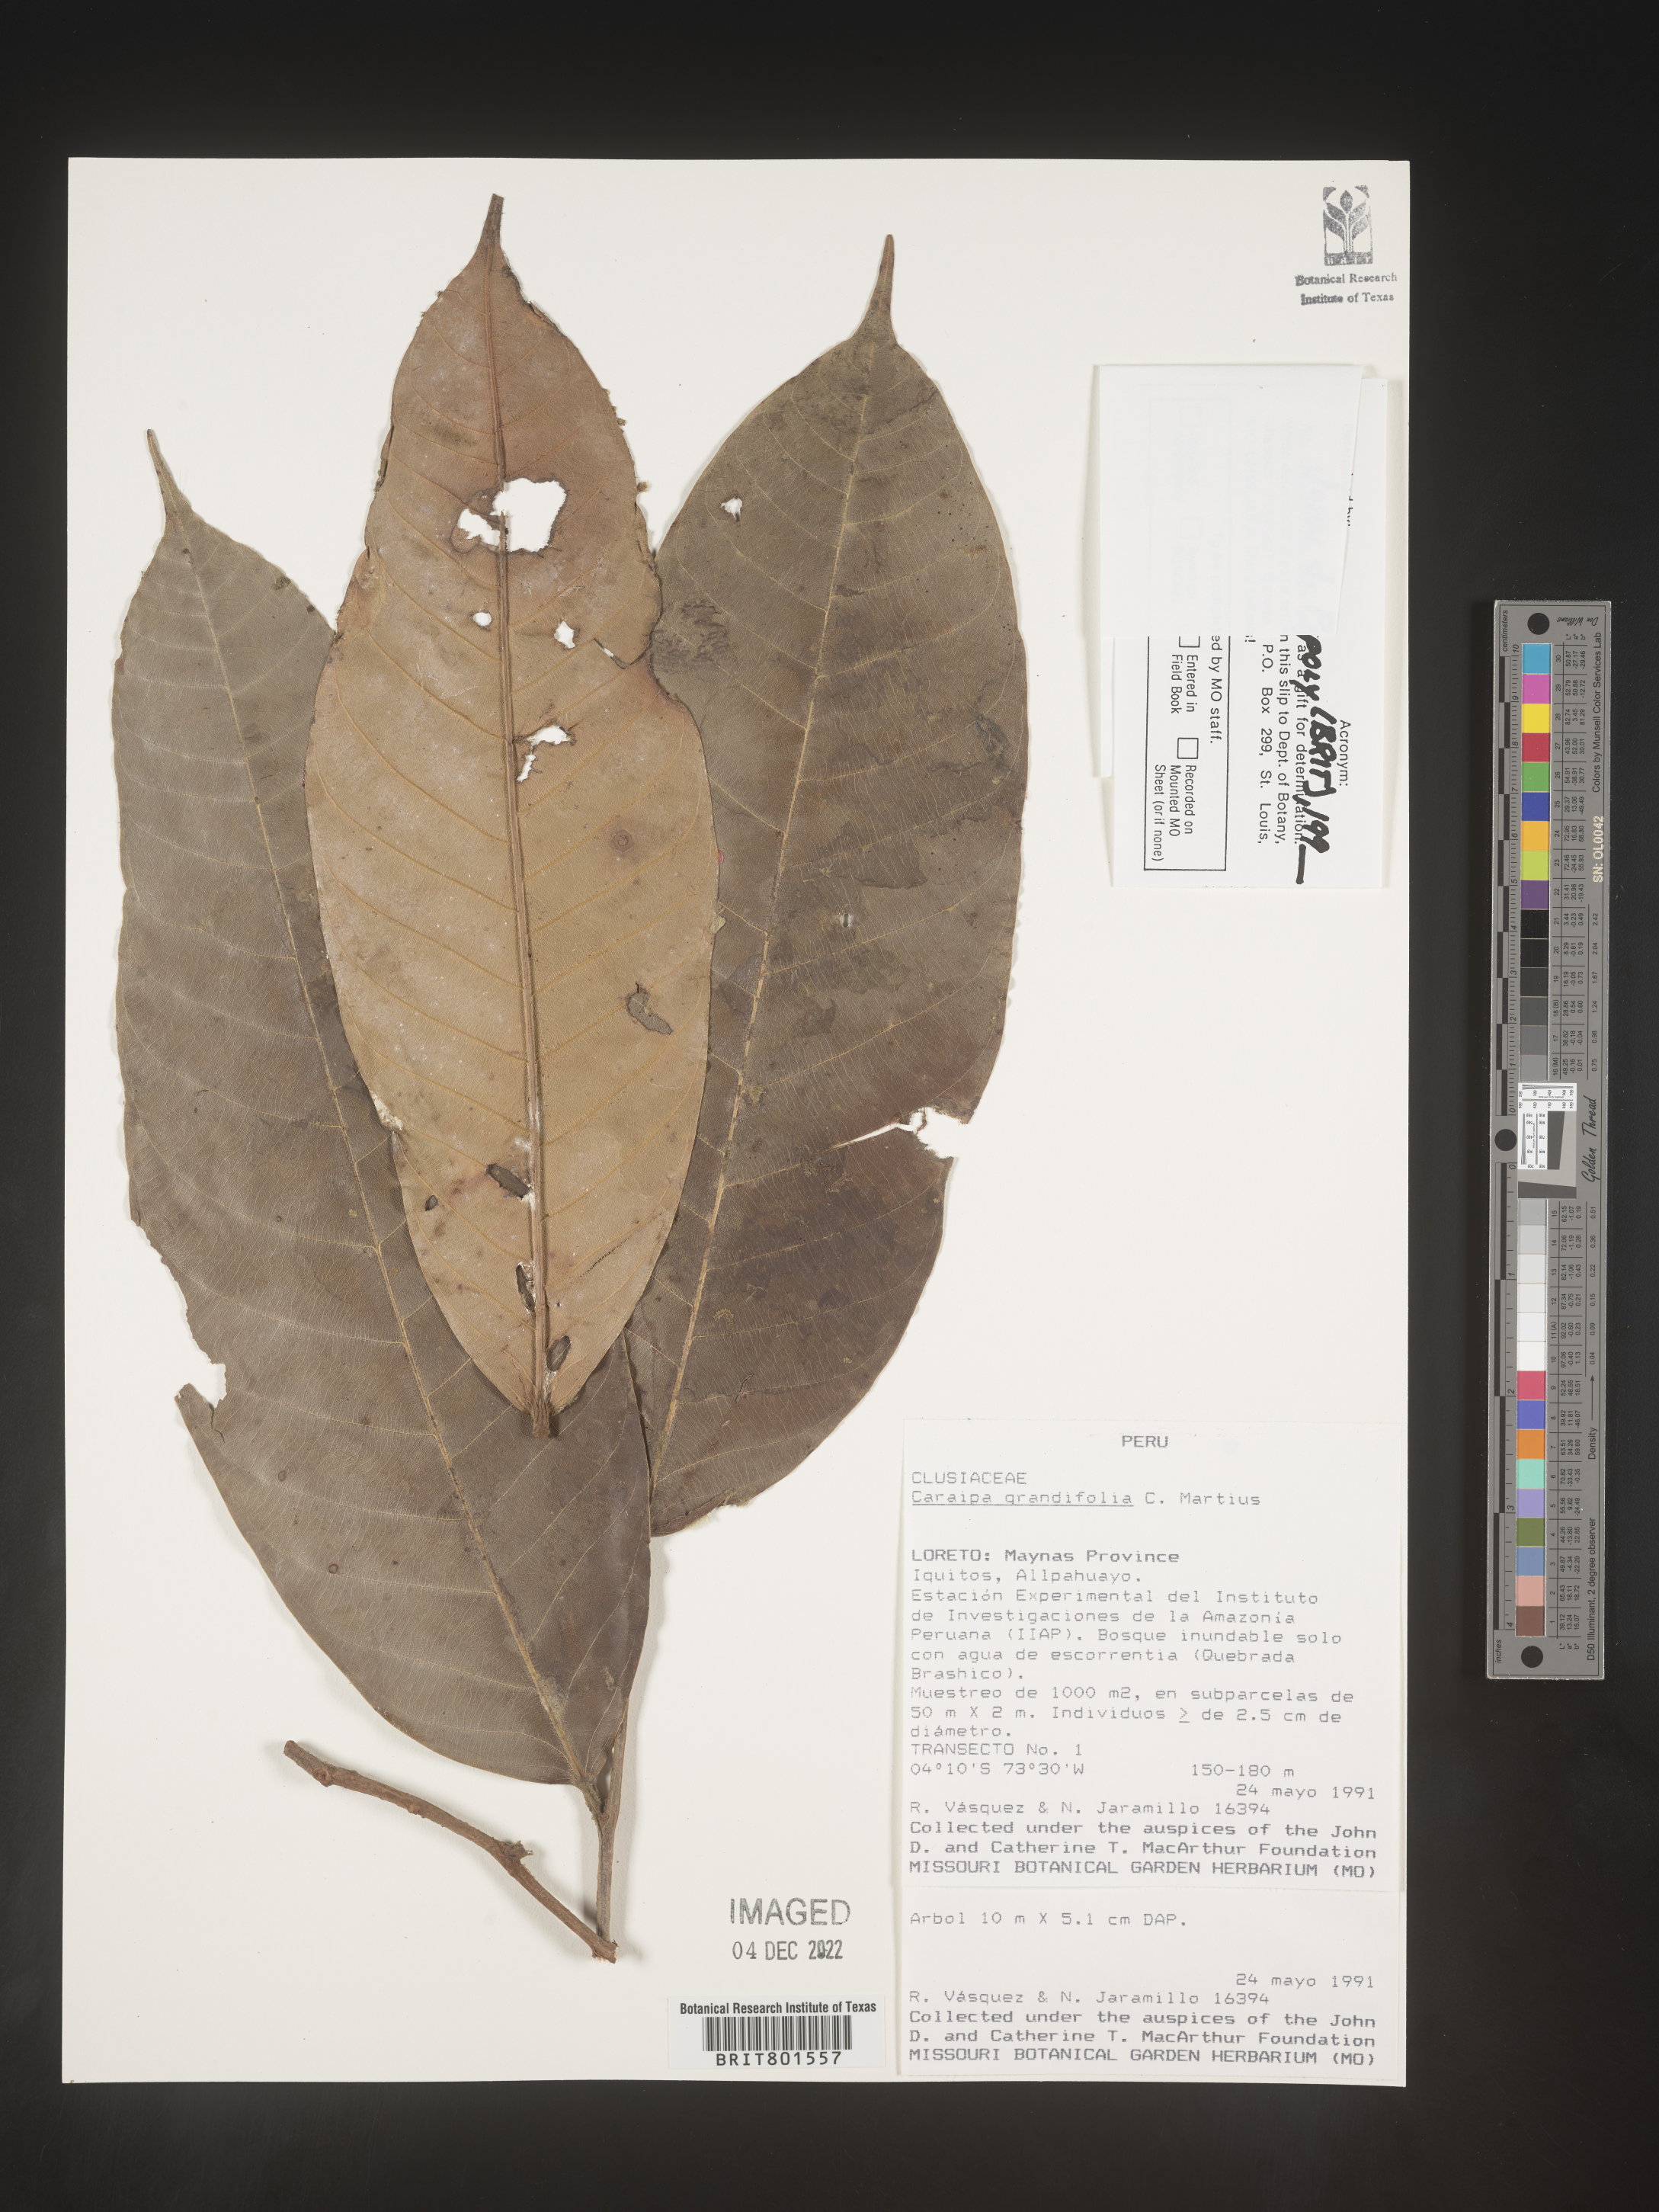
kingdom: Plantae
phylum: Tracheophyta
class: Magnoliopsida
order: Malpighiales
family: Calophyllaceae
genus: Caraipa
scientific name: Caraipa
